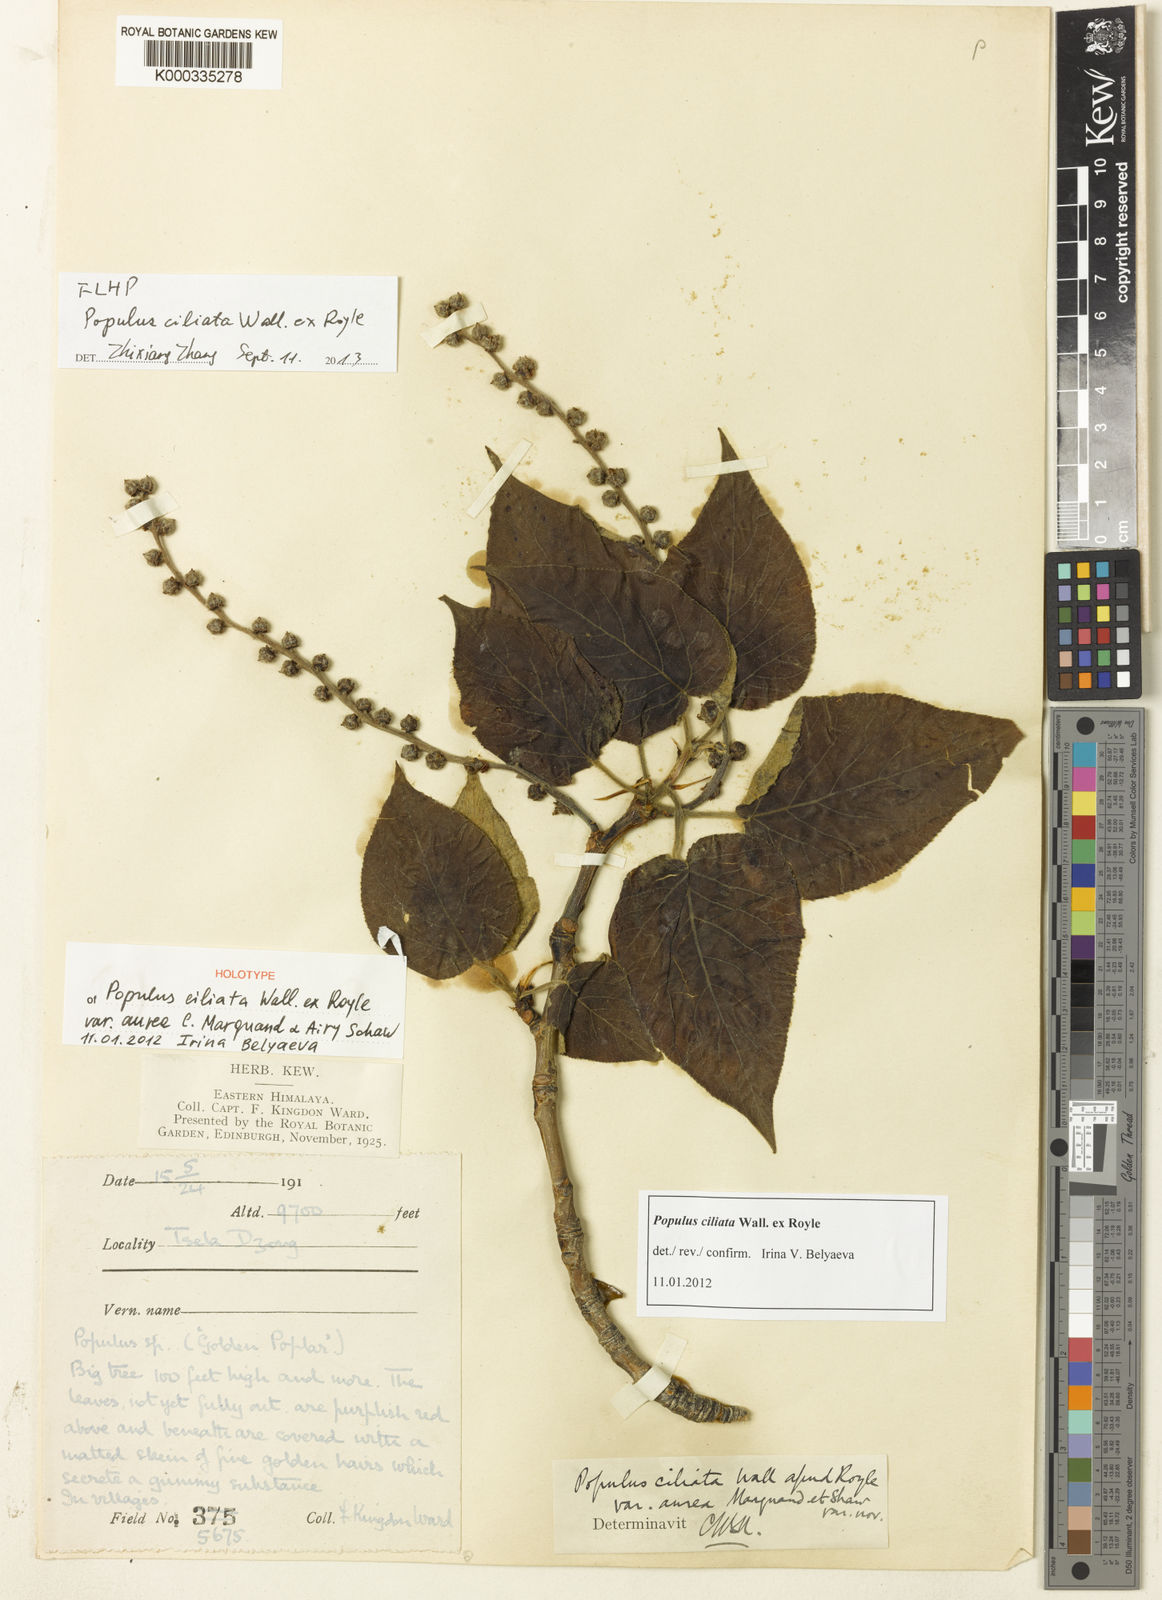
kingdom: Plantae
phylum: Tracheophyta
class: Magnoliopsida
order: Malpighiales
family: Salicaceae
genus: Populus
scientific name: Populus ciliata
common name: Himalayan poplar
